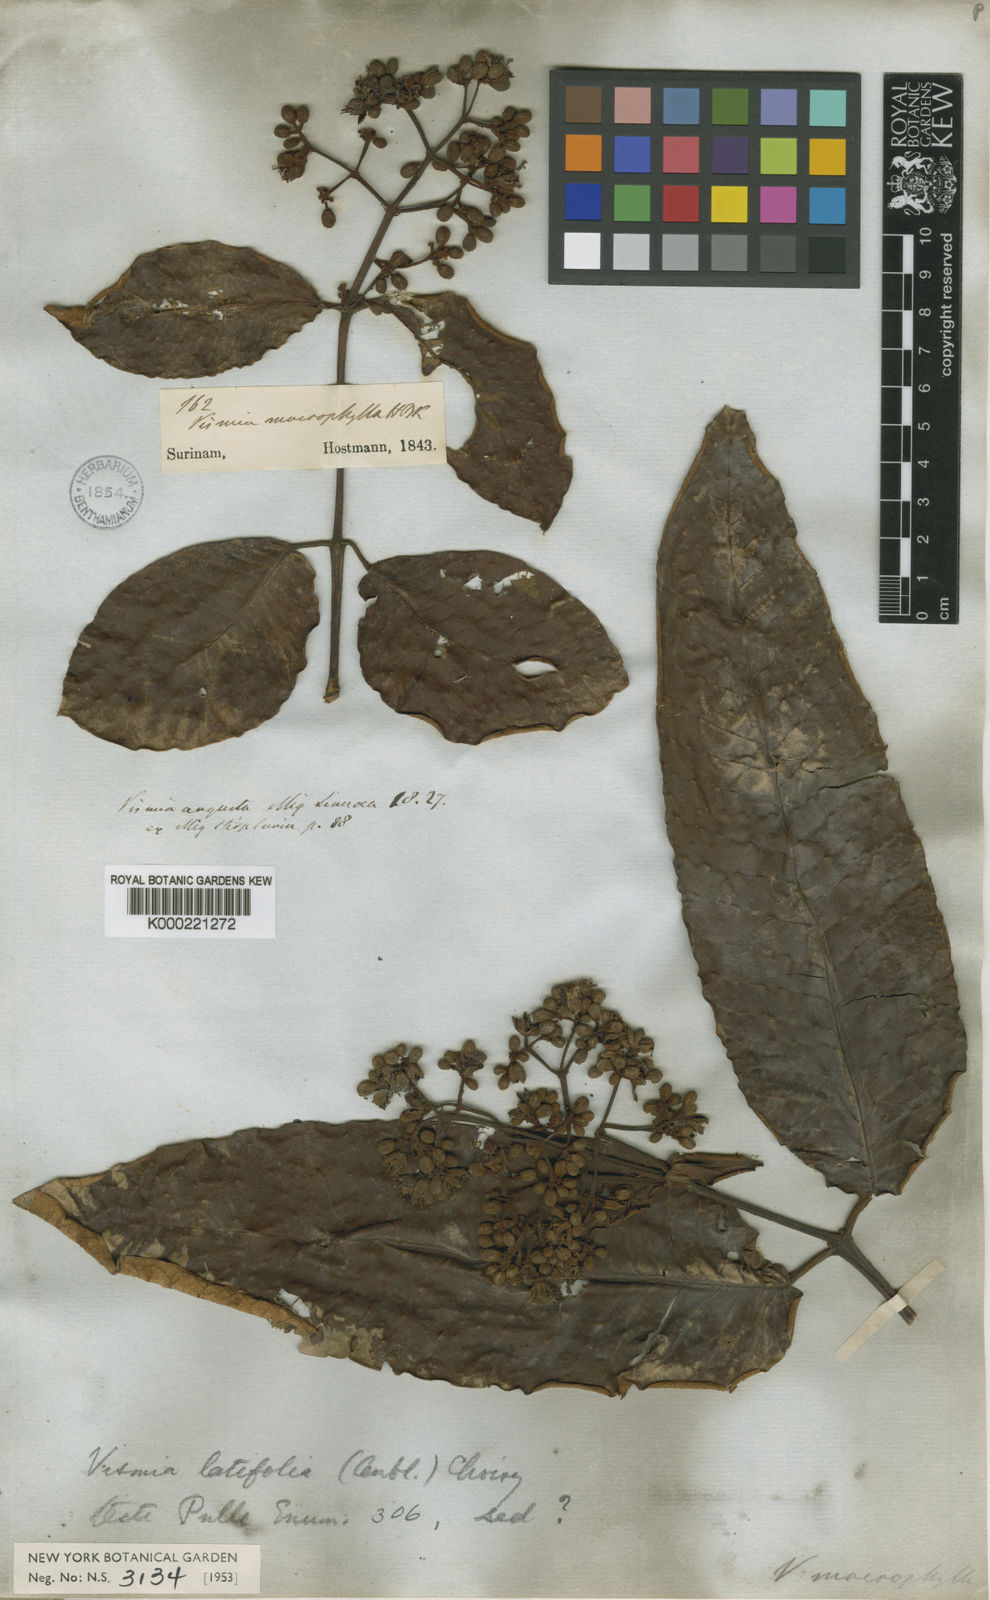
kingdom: Plantae
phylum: Tracheophyta
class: Magnoliopsida
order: Malpighiales
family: Hypericaceae
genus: Vismia
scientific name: Vismia macrophylla
